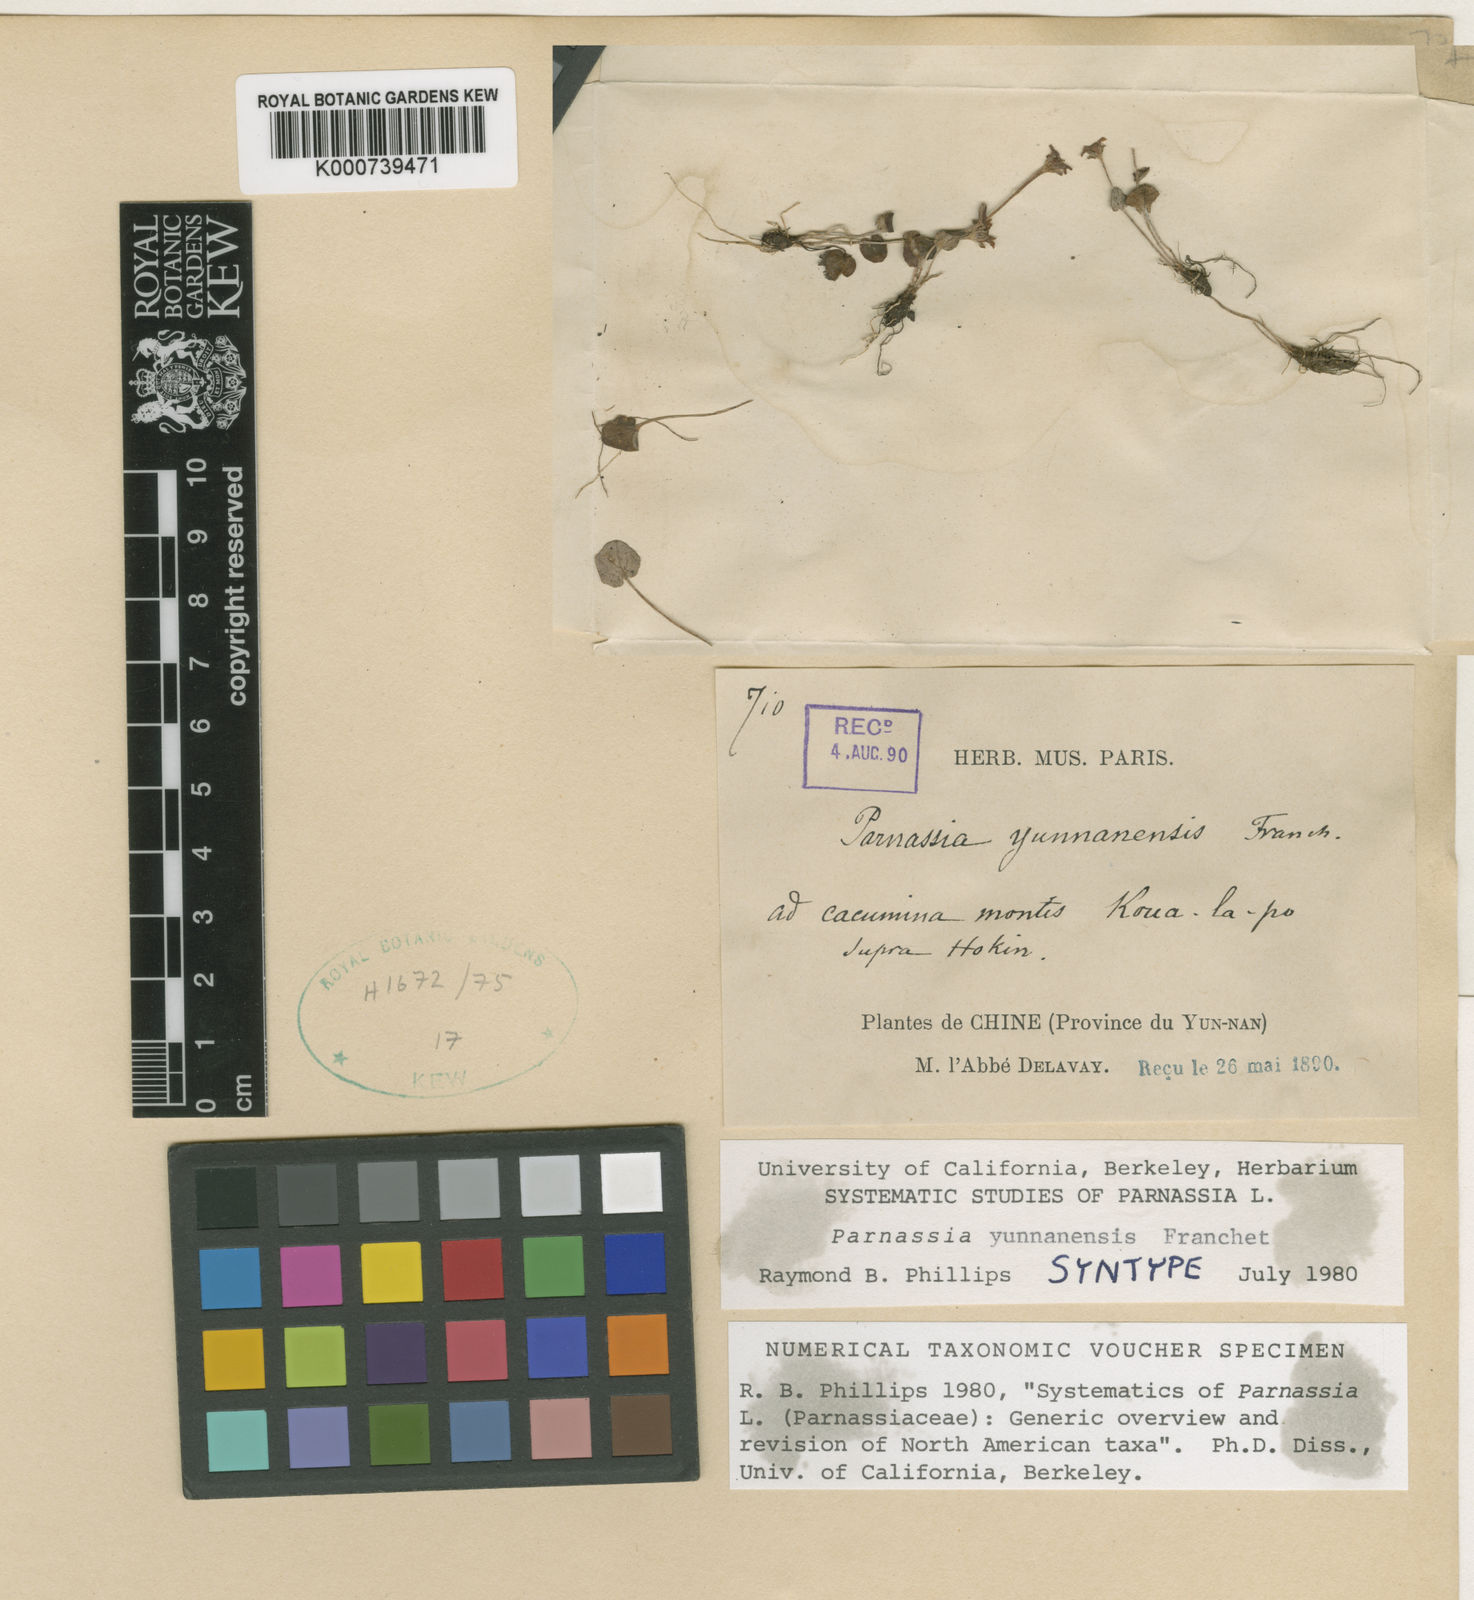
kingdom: Plantae
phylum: Tracheophyta
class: Magnoliopsida
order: Celastrales
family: Parnassiaceae
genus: Parnassia
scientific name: Parnassia yunnanensis
